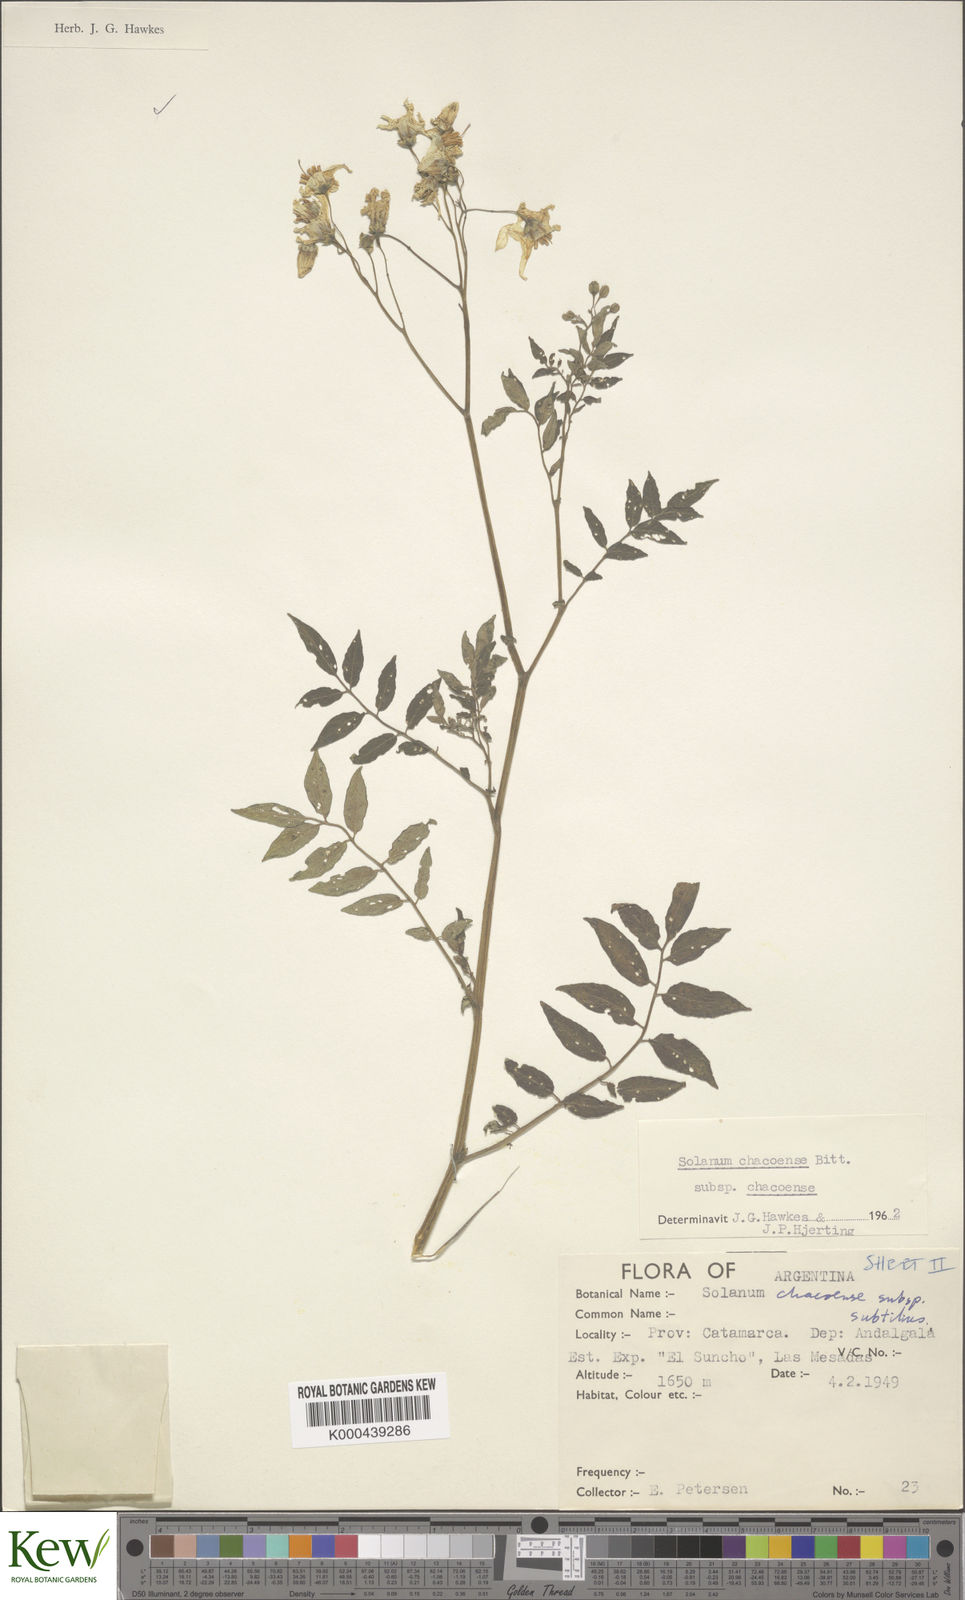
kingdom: Plantae
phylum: Tracheophyta
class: Magnoliopsida
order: Solanales
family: Solanaceae
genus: Solanum
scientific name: Solanum chacoense
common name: Chaco potato
